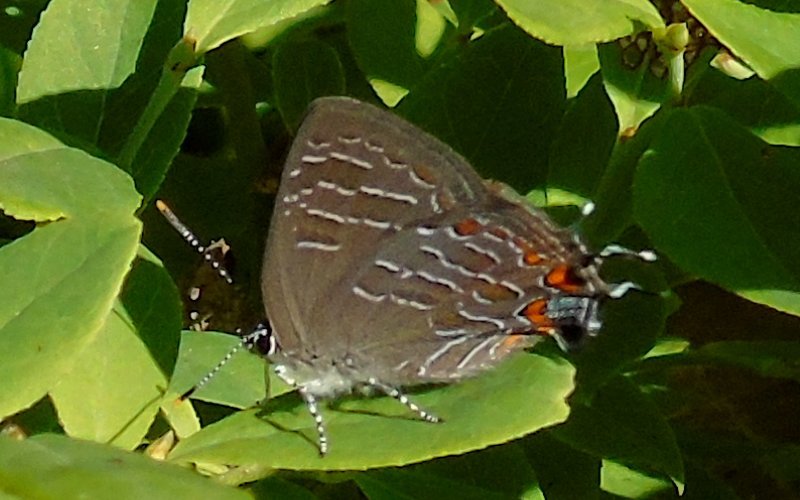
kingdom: Animalia
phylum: Arthropoda
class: Insecta
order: Lepidoptera
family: Lycaenidae
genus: Satyrium
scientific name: Satyrium liparops
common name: Striped Hairstreak
